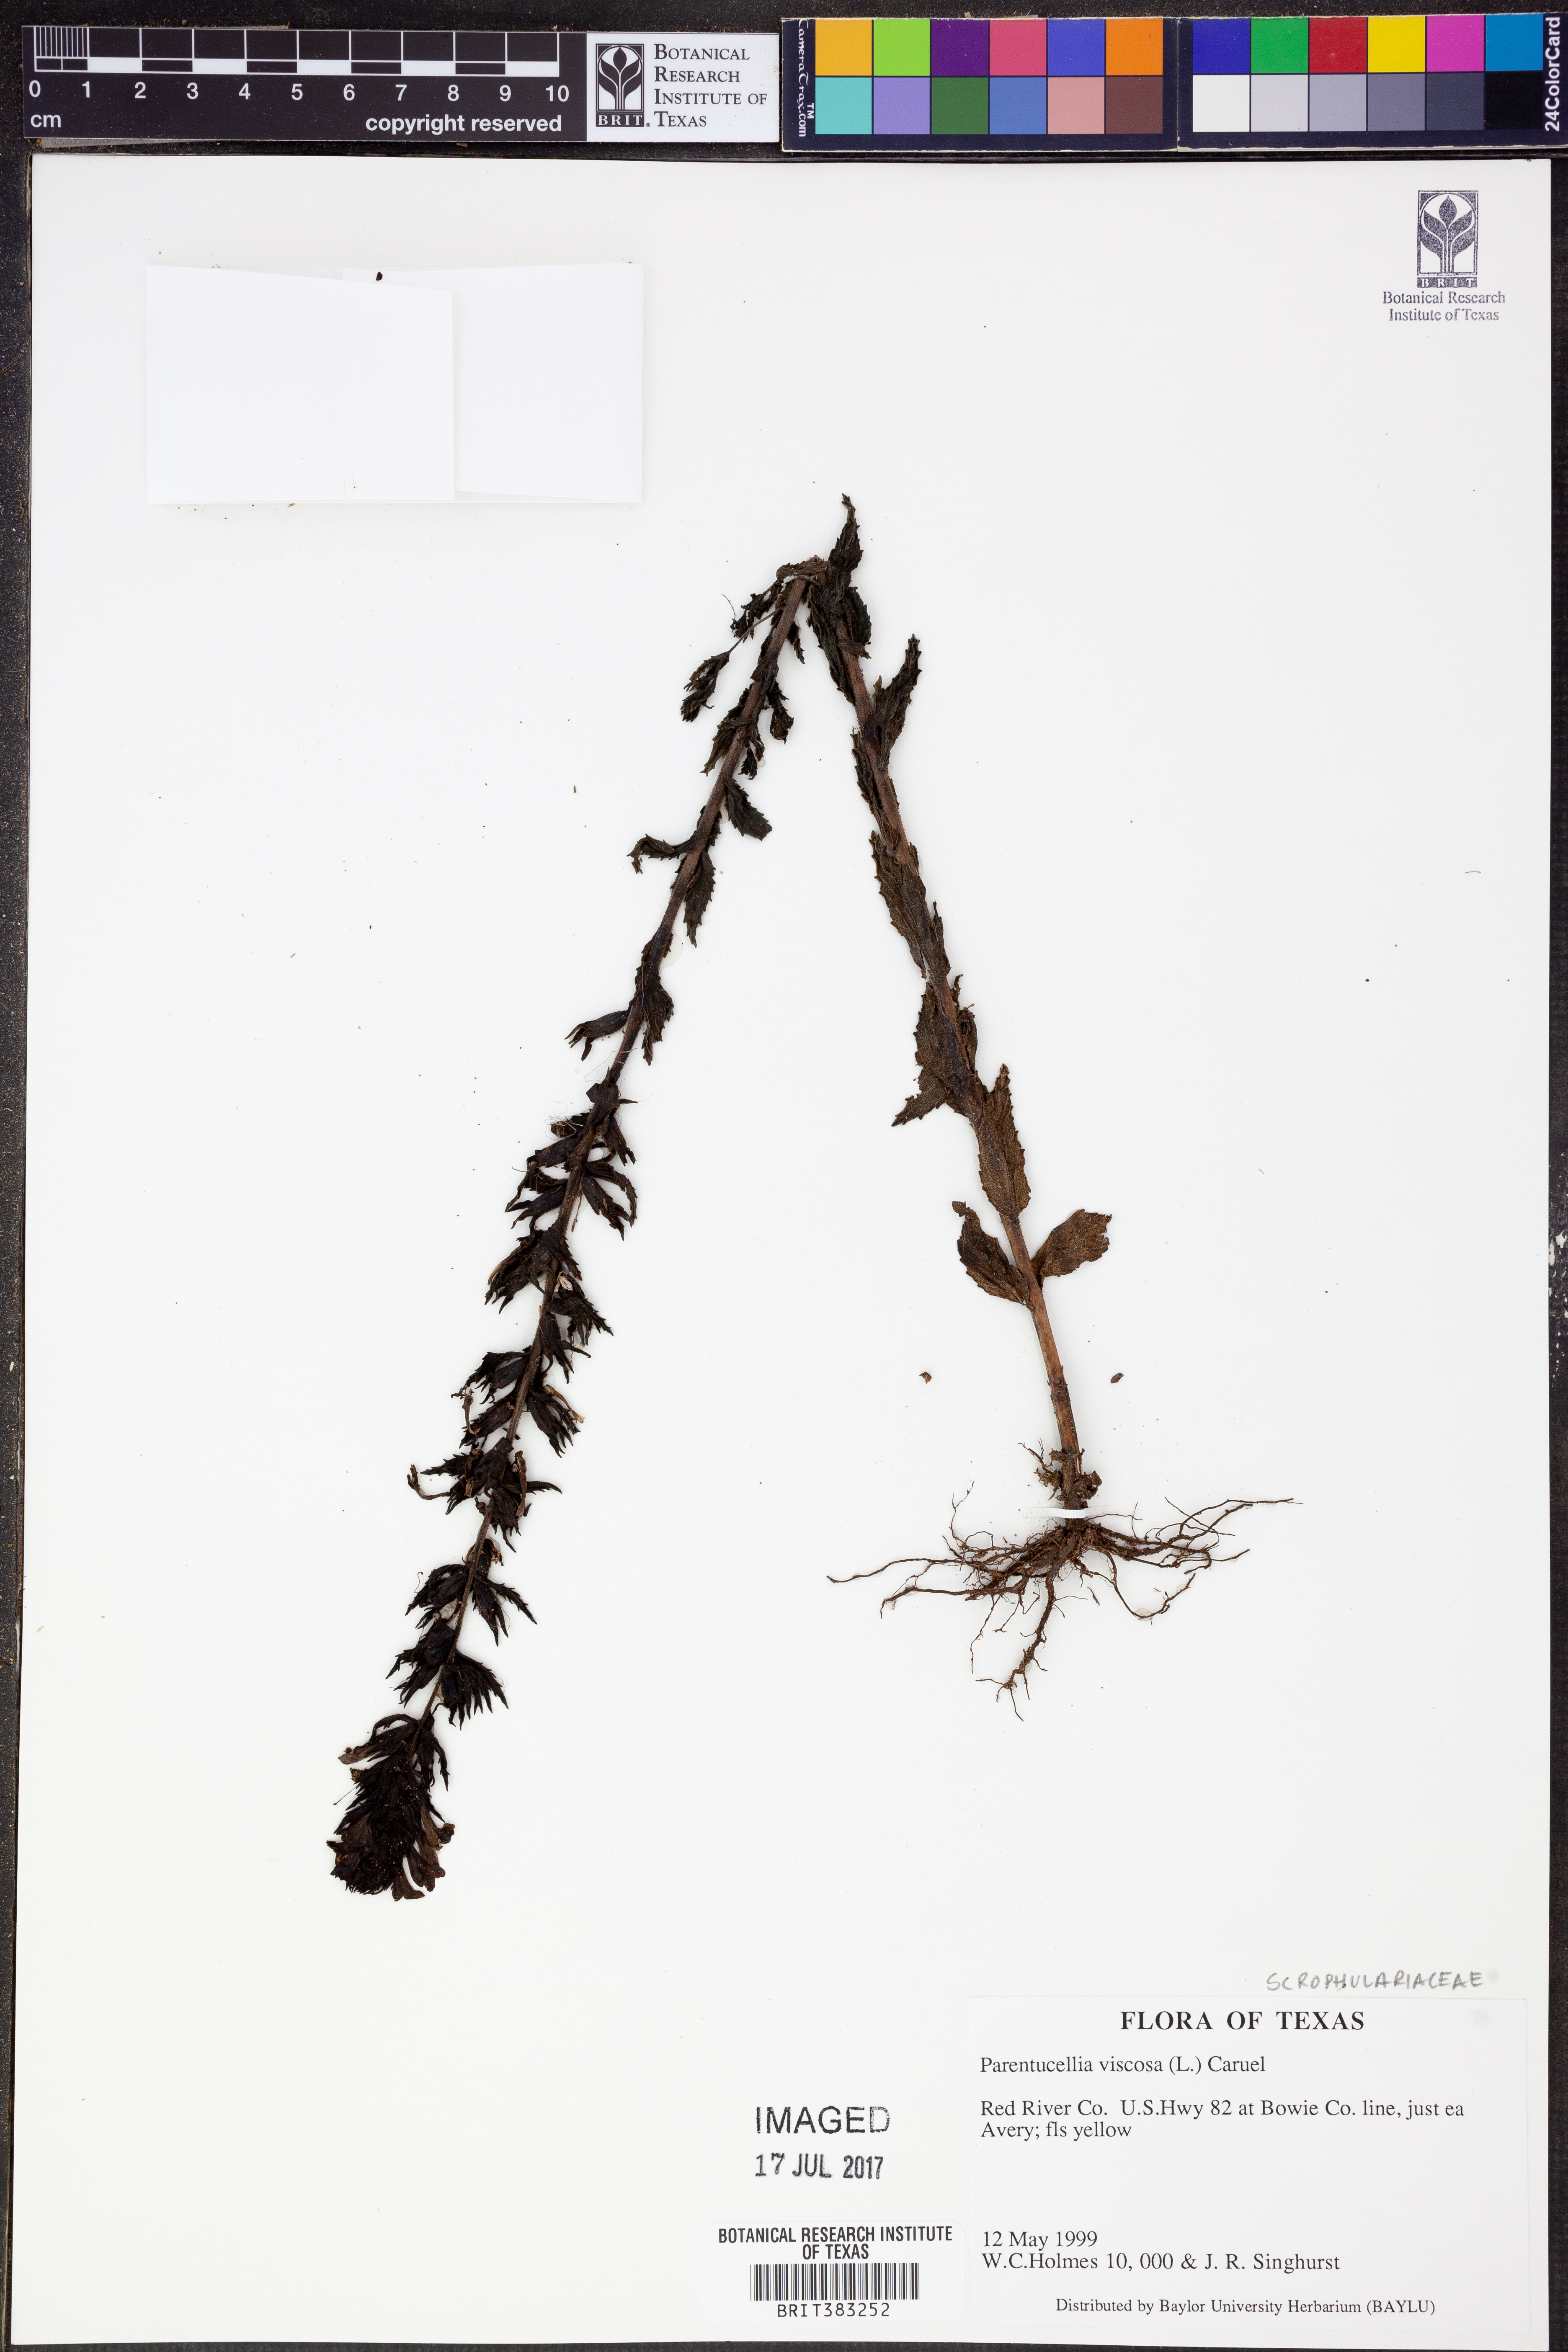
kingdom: Plantae
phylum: Tracheophyta
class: Magnoliopsida
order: Lamiales
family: Orobanchaceae
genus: Bellardia
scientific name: Bellardia viscosa
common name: Sticky parentucellia
